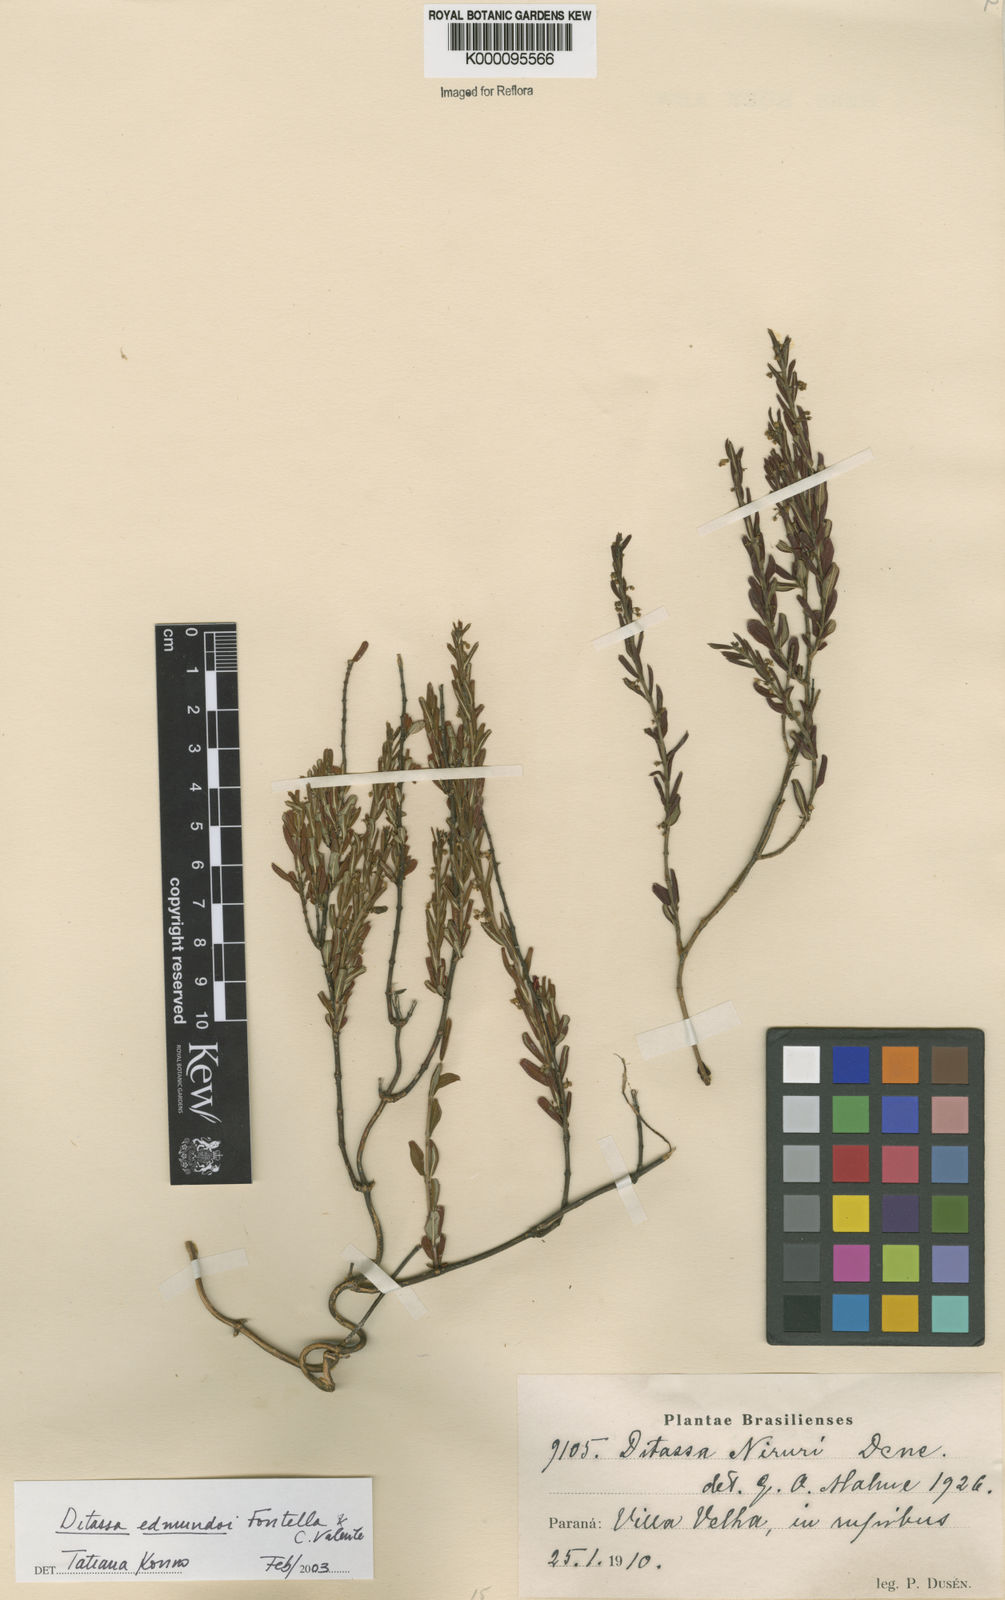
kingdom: Plantae
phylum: Tracheophyta
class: Magnoliopsida
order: Gentianales
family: Apocynaceae
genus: Ditassa
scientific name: Ditassa edmundoi
